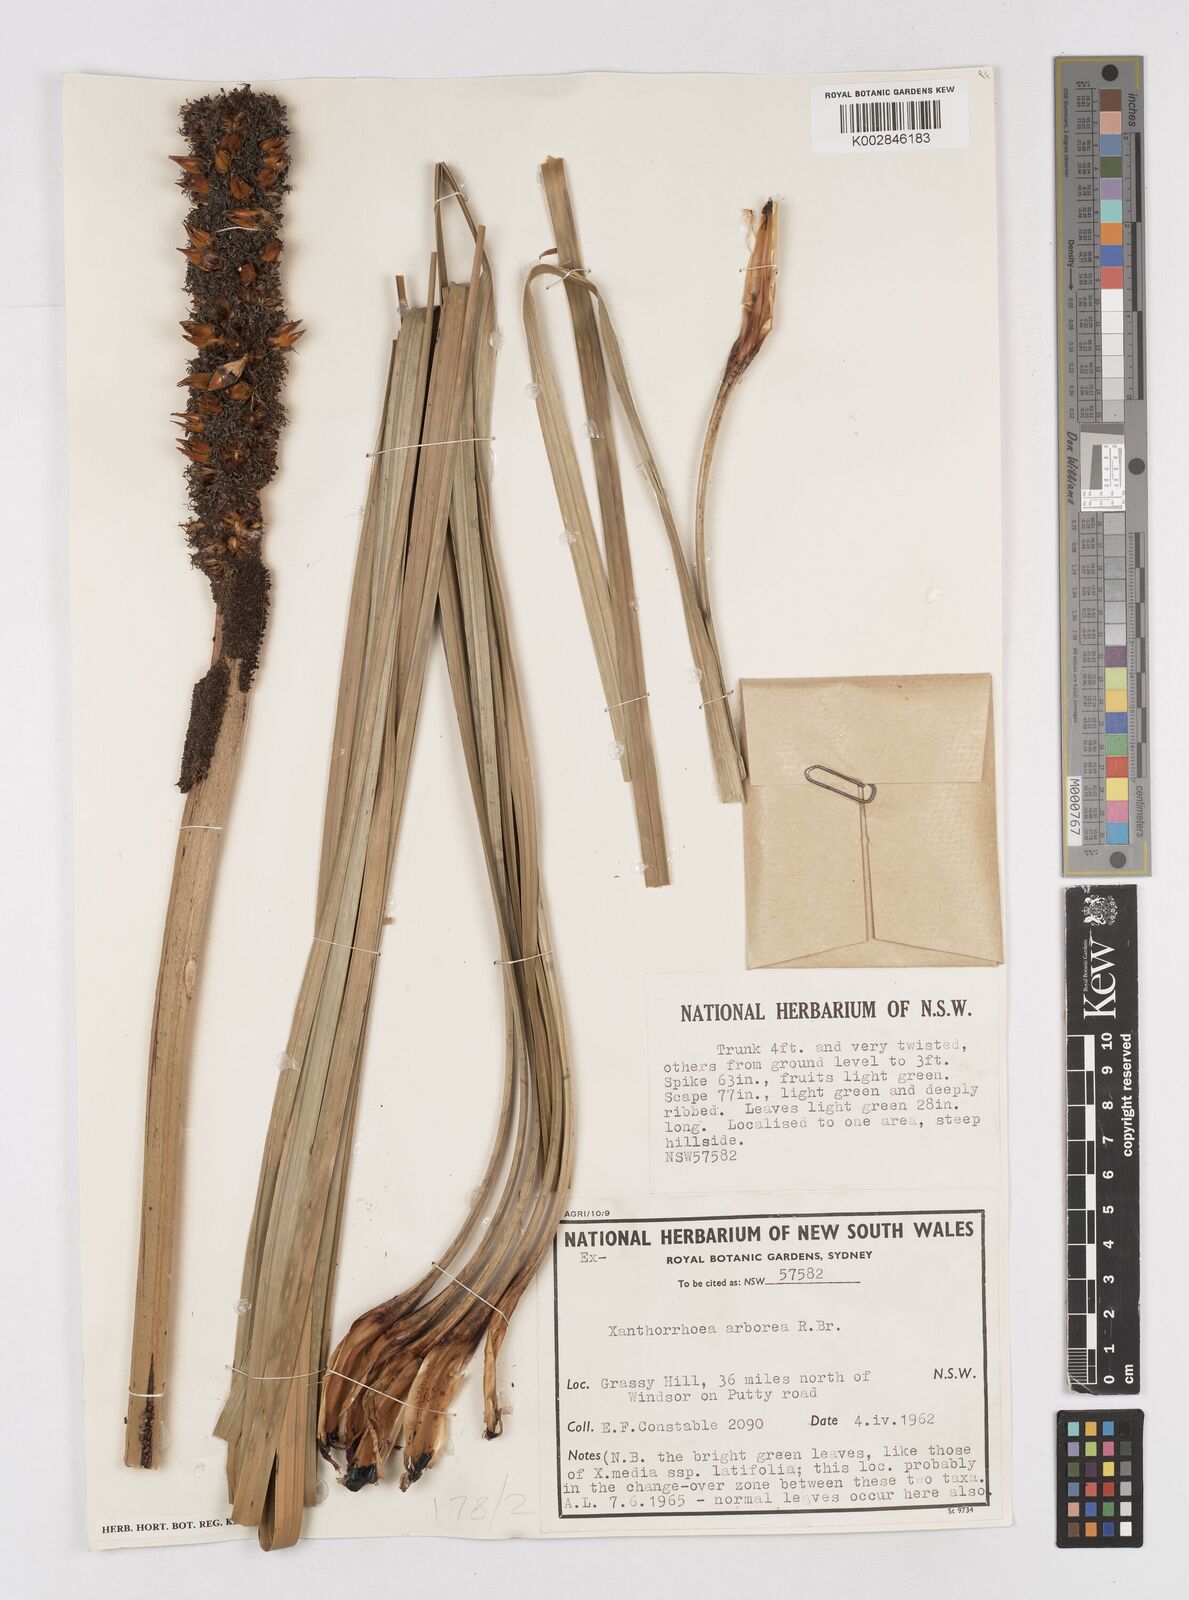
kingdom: Plantae
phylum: Tracheophyta
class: Liliopsida
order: Asparagales
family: Asphodelaceae
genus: Xanthorrhoea
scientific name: Xanthorrhoea arborea
